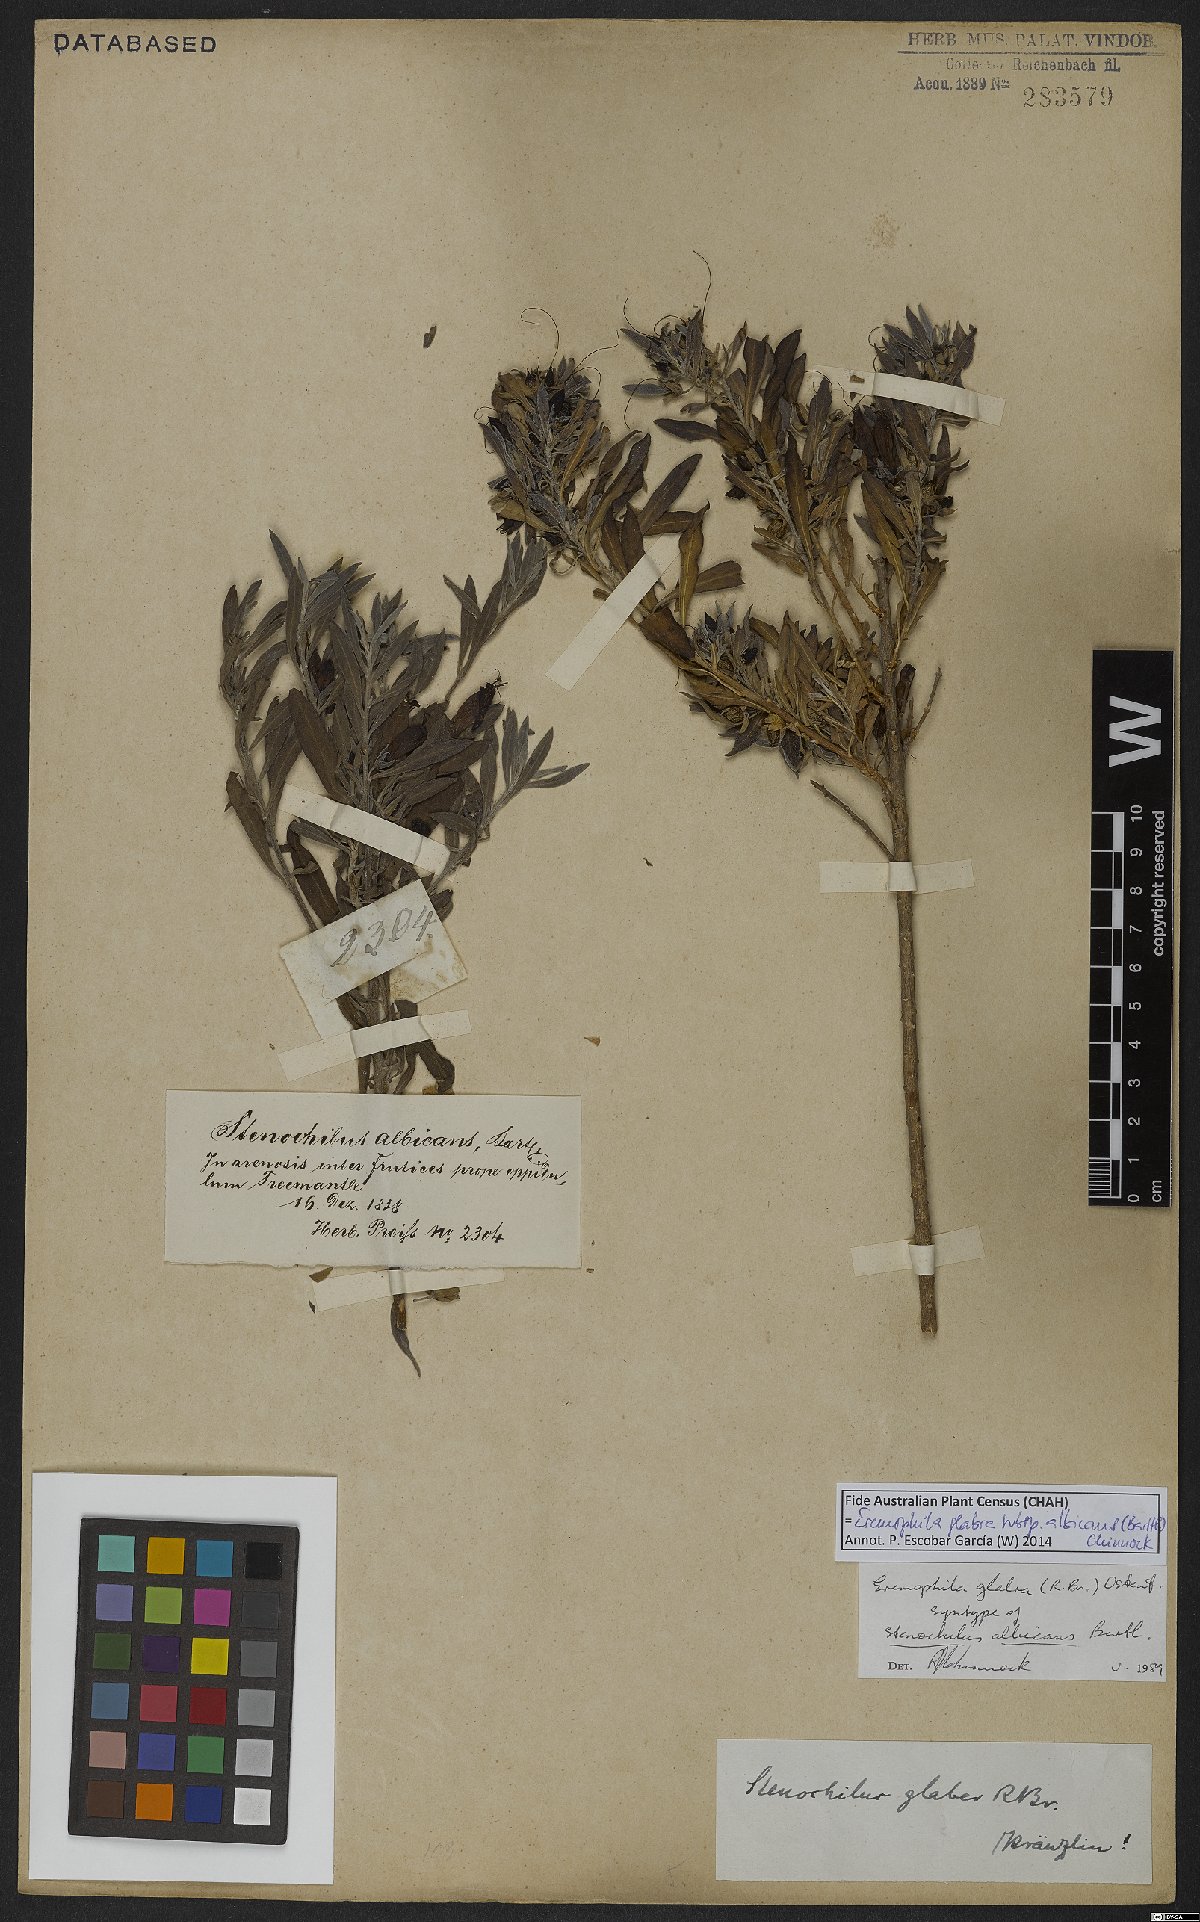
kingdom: Plantae
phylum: Tracheophyta
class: Magnoliopsida
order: Lamiales
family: Scrophulariaceae
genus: Eremophila
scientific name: Eremophila glabra
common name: Black-fuchsia
